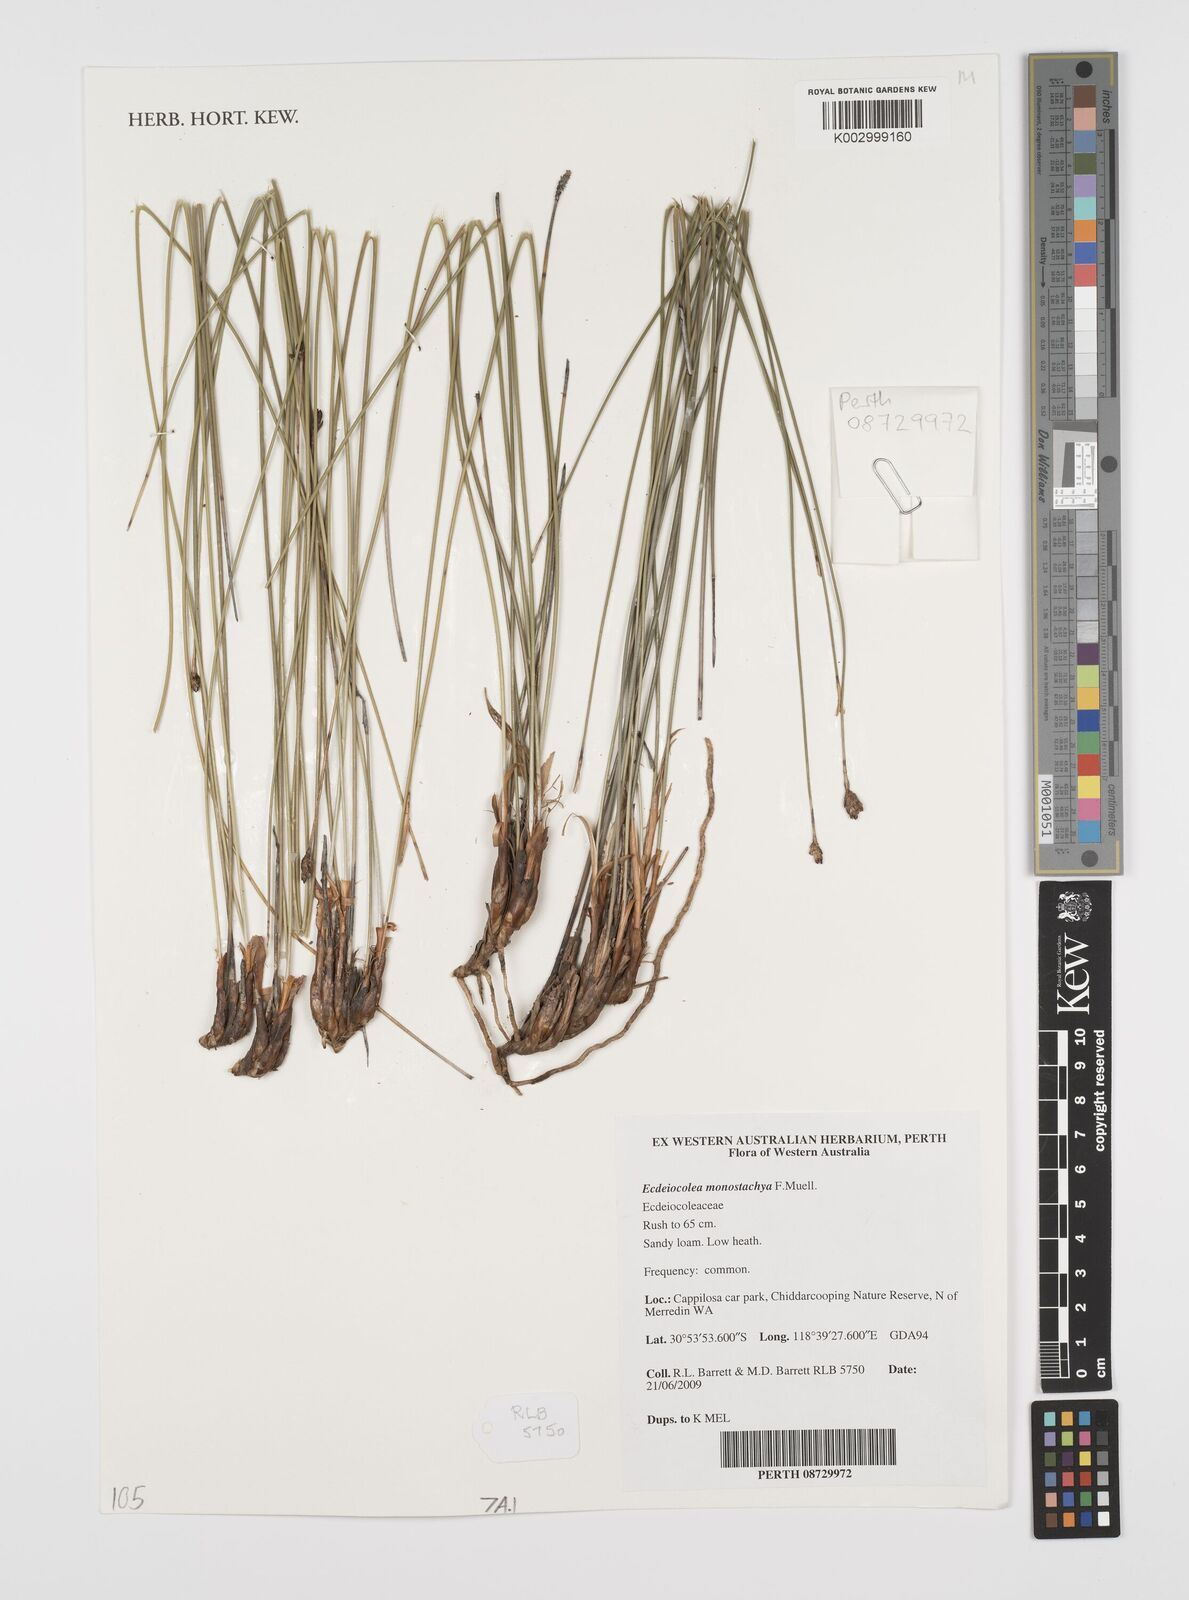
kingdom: Plantae
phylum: Tracheophyta
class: Liliopsida
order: Poales
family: Ecdeiocoleaceae
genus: Ecdeiocolea
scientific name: Ecdeiocolea monostachya
